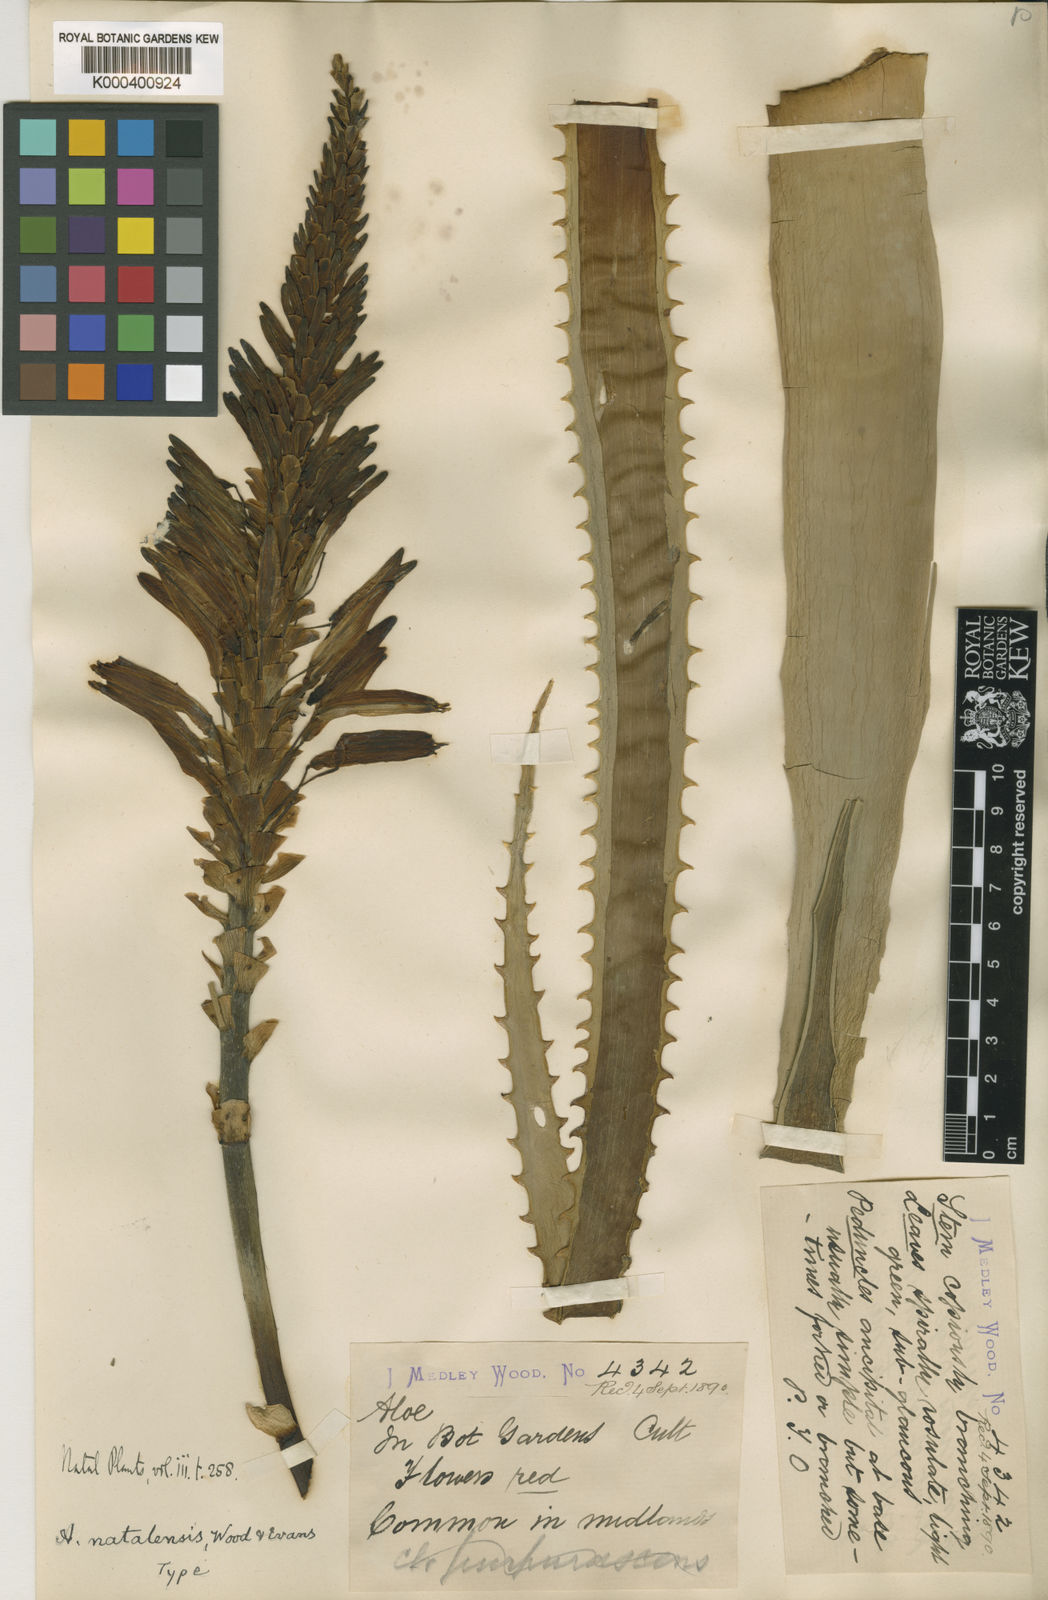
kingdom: Plantae
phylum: Tracheophyta
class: Liliopsida
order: Asparagales
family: Asphodelaceae
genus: Aloe
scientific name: Aloe arborescens
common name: Candelabra aloe
